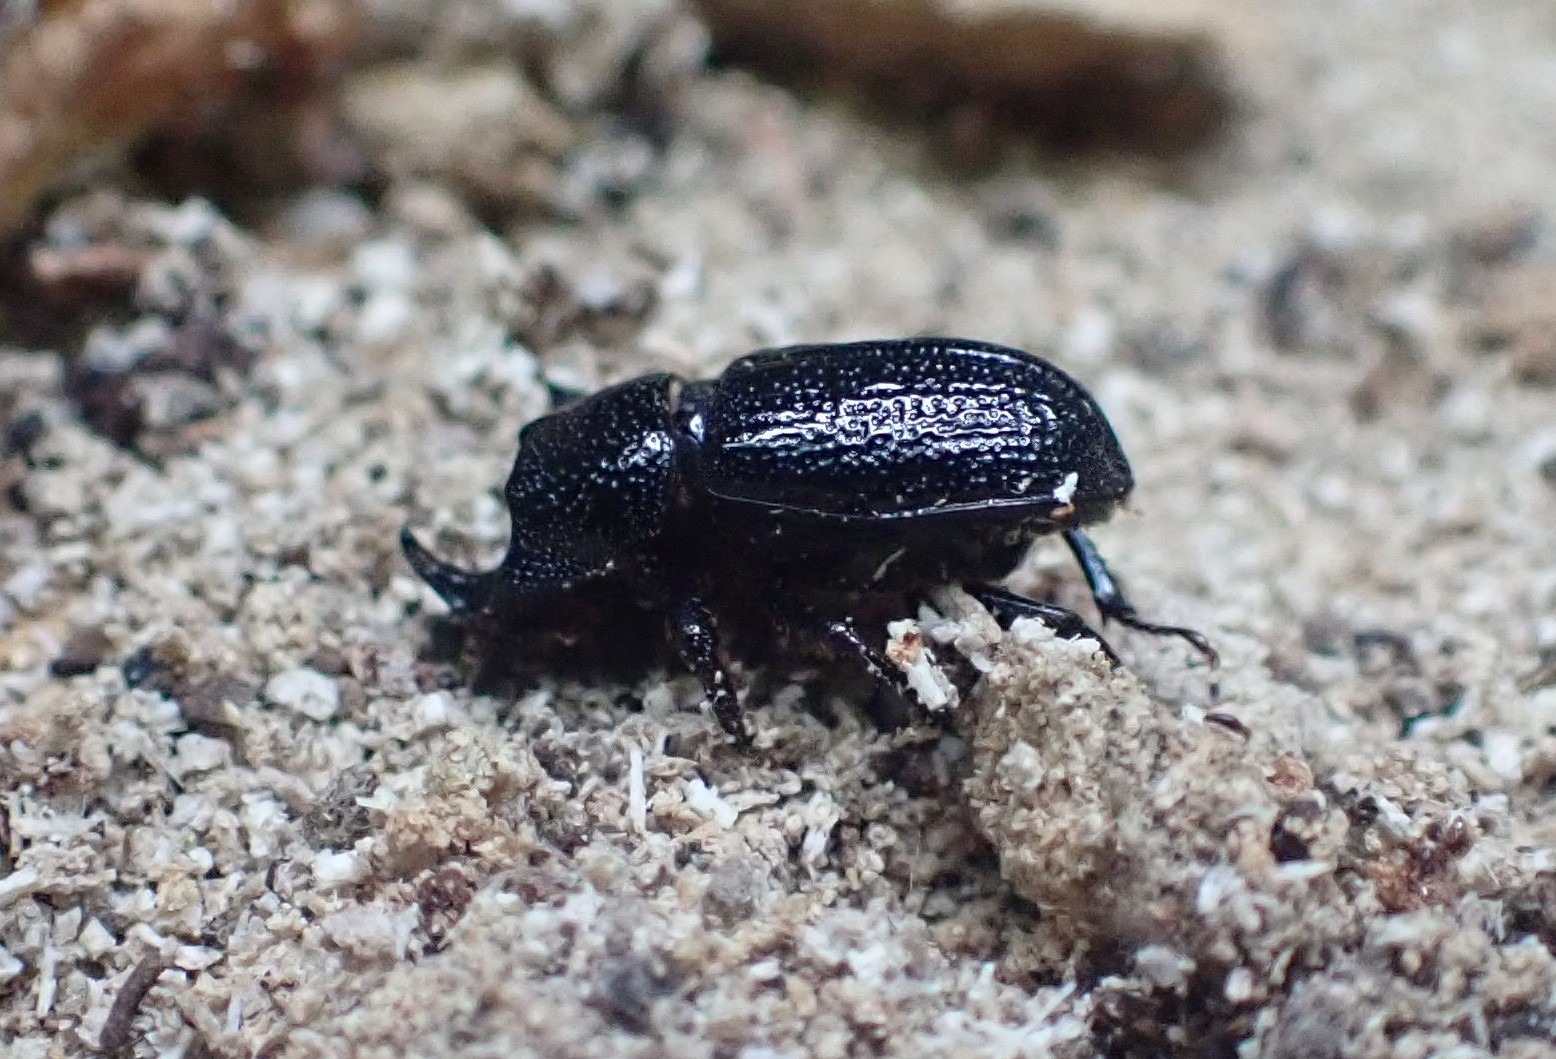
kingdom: Animalia
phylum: Arthropoda
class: Insecta
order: Coleoptera
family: Lucanidae
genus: Sinodendron
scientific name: Sinodendron cylindricum
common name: Valsehjort
